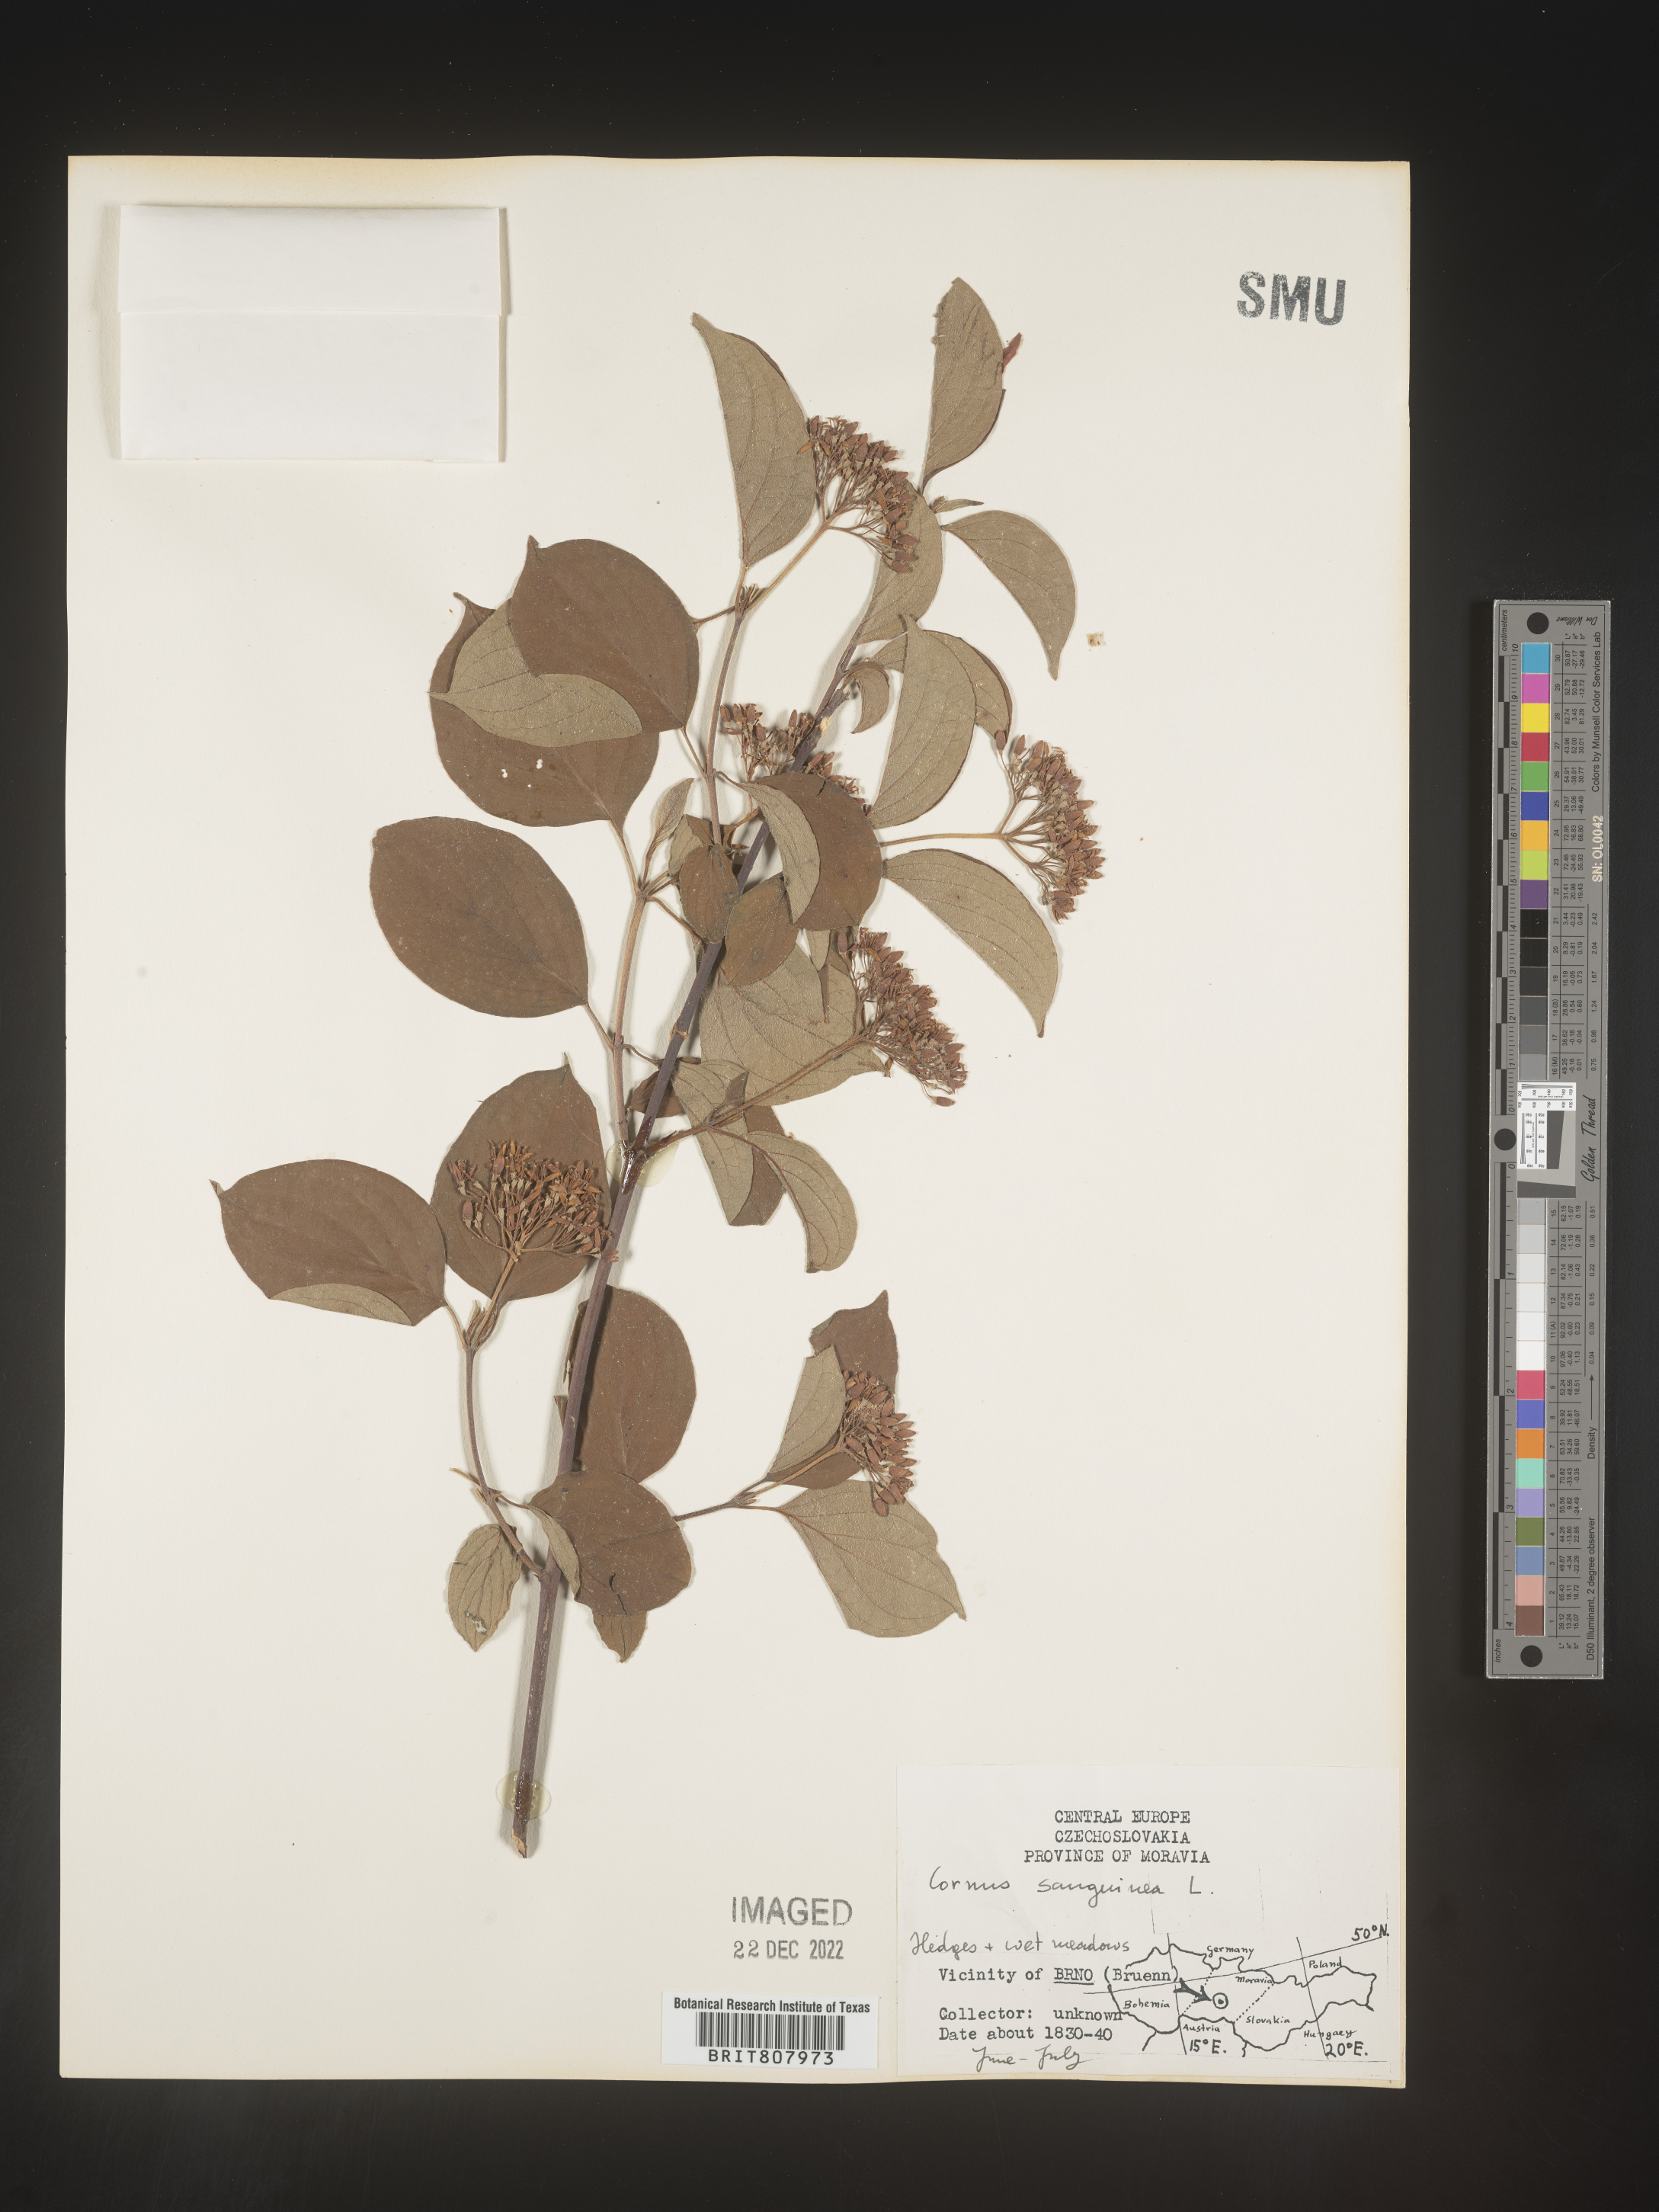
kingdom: Plantae
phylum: Tracheophyta
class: Magnoliopsida
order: Cornales
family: Cornaceae
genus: Cornus
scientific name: Cornus
